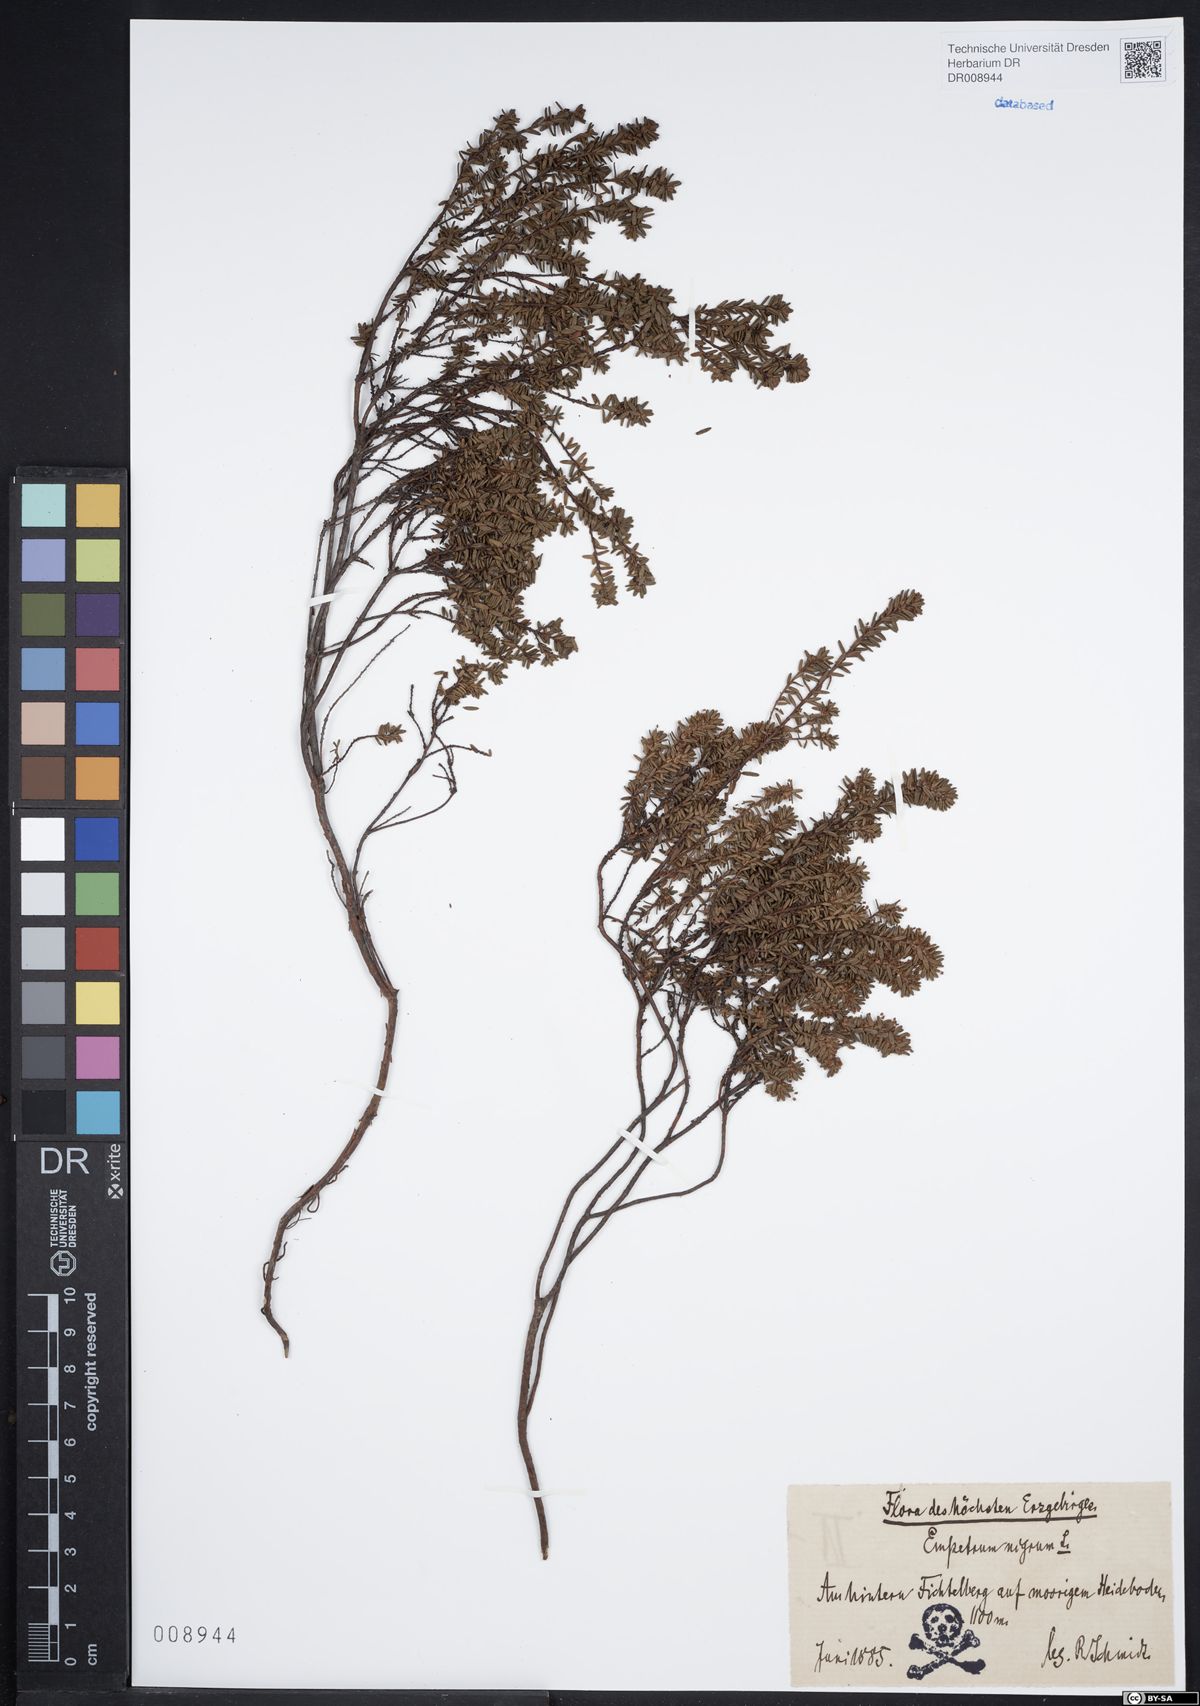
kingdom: Plantae
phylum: Tracheophyta
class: Magnoliopsida
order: Ericales
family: Ericaceae
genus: Empetrum
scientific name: Empetrum nigrum
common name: Black crowberry
